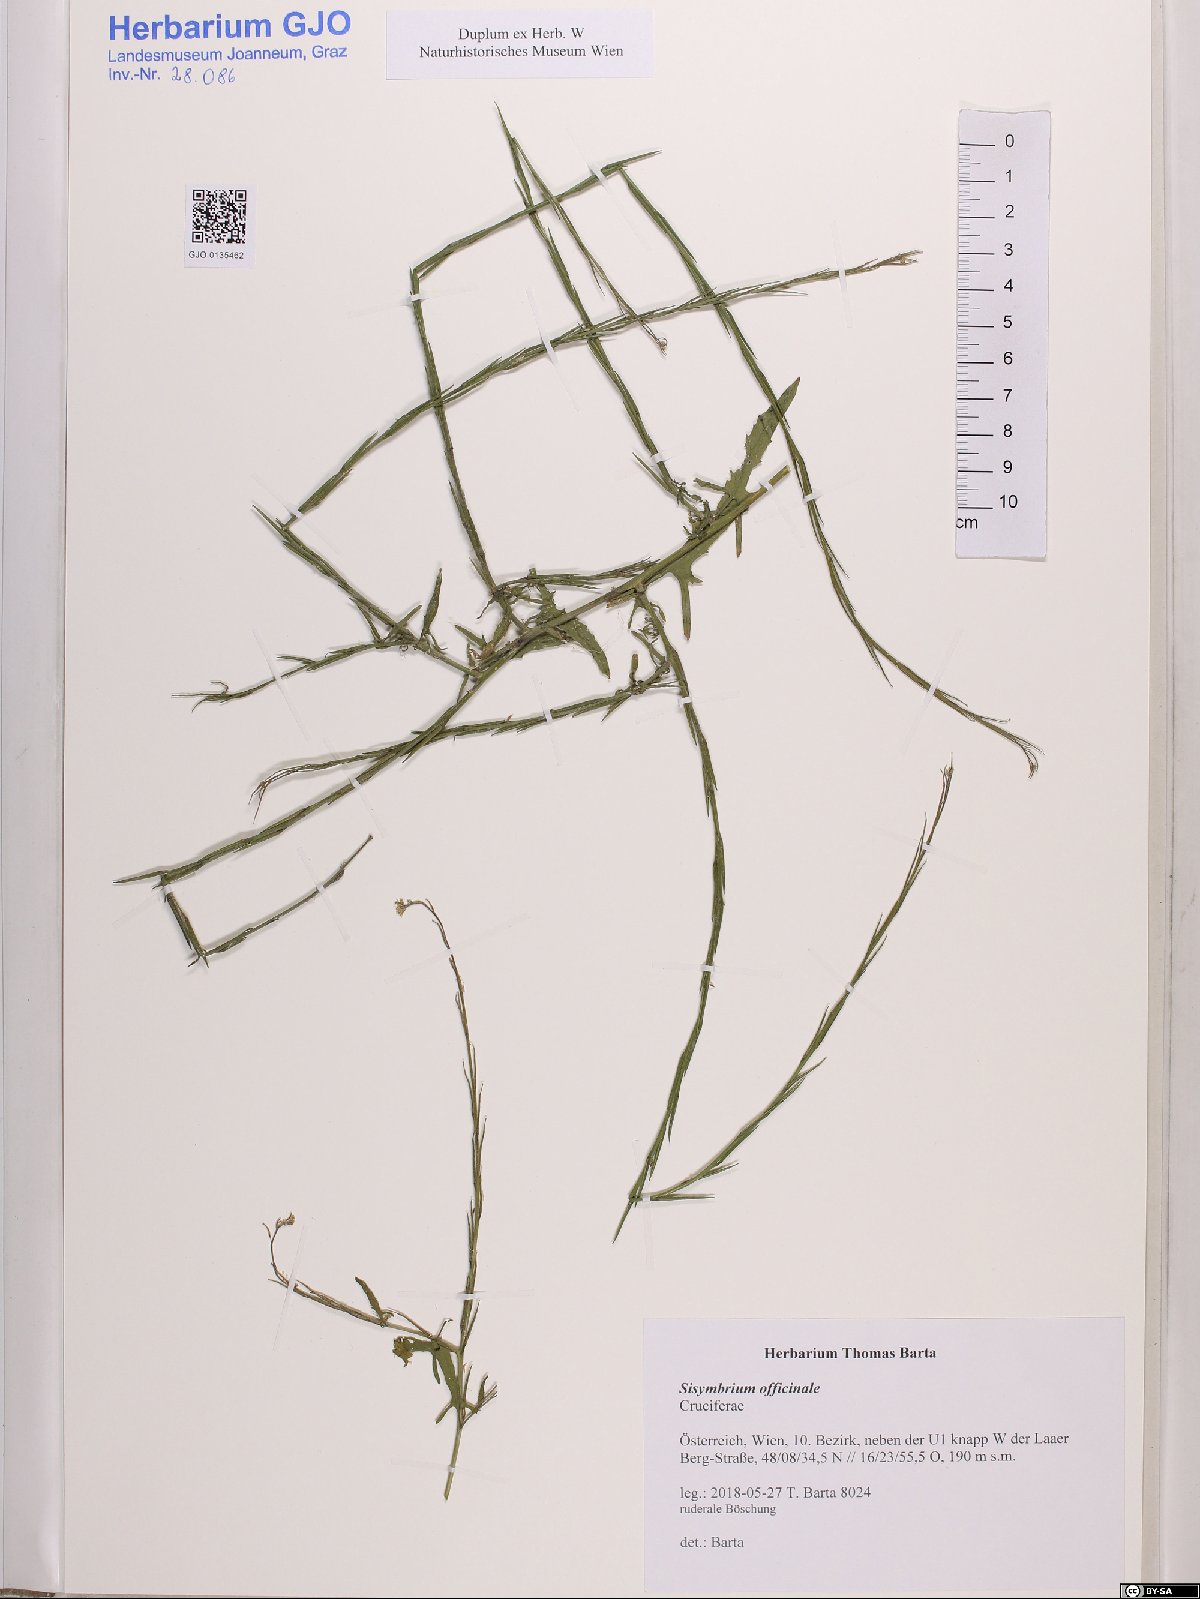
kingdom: Plantae
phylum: Tracheophyta
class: Magnoliopsida
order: Brassicales
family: Brassicaceae
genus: Sisymbrium
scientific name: Sisymbrium officinale
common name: Hedge mustard
